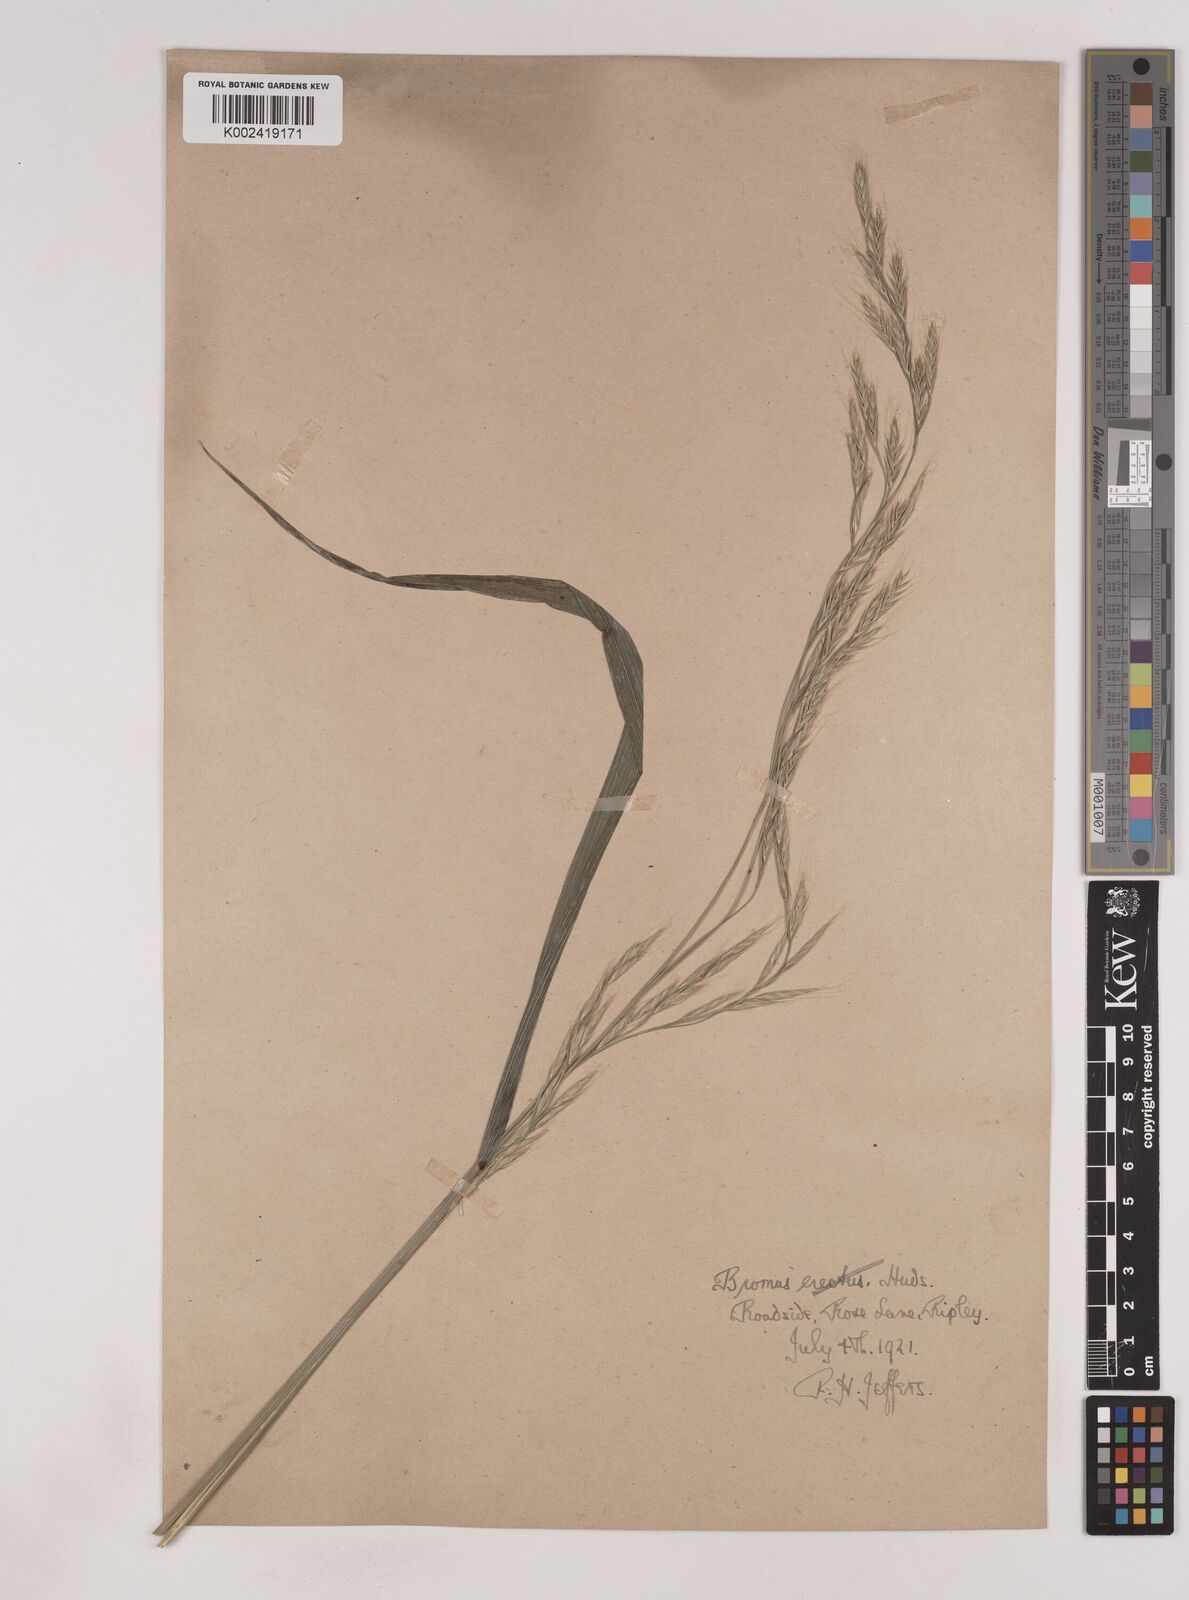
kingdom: Plantae
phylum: Tracheophyta
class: Liliopsida
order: Poales
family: Poaceae
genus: Lolium
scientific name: Lolium giganteum
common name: Giant fescue
